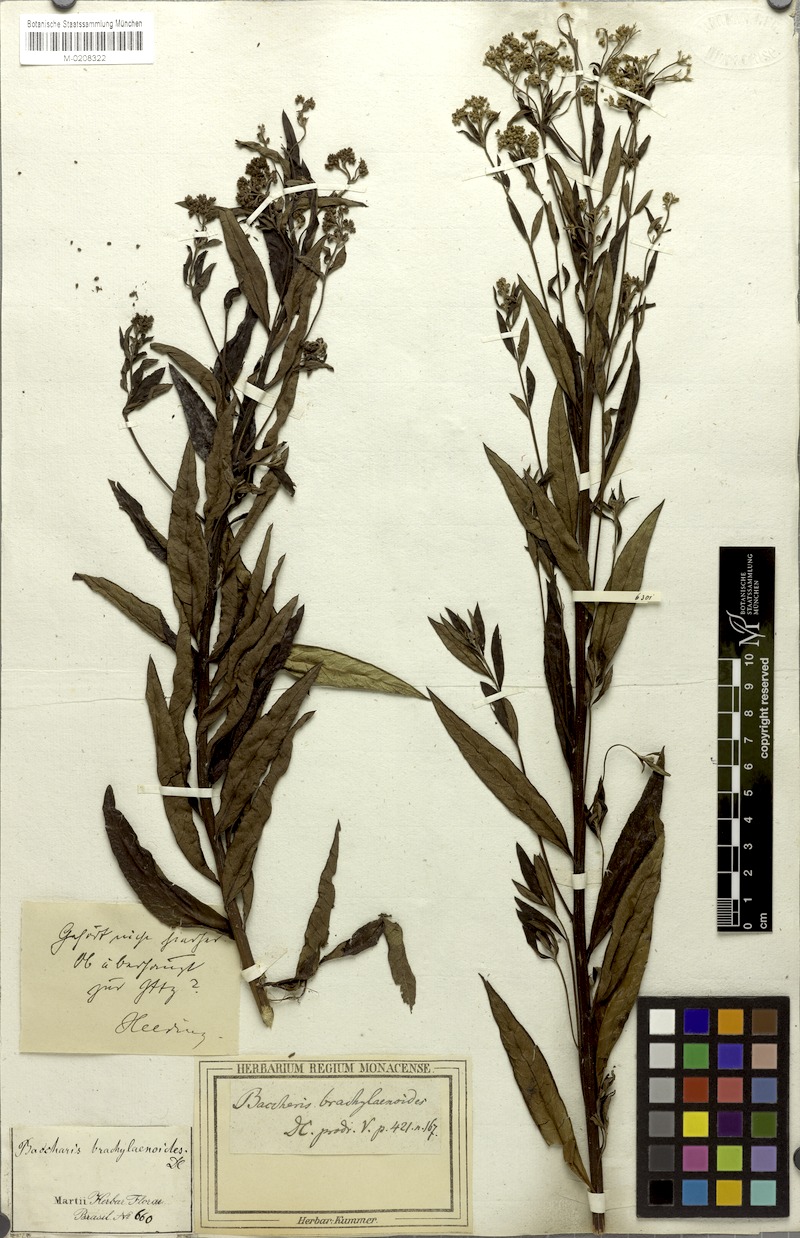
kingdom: Plantae
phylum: Tracheophyta
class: Magnoliopsida
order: Asterales
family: Asteraceae
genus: Baccharis
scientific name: Baccharis oblongifolia
